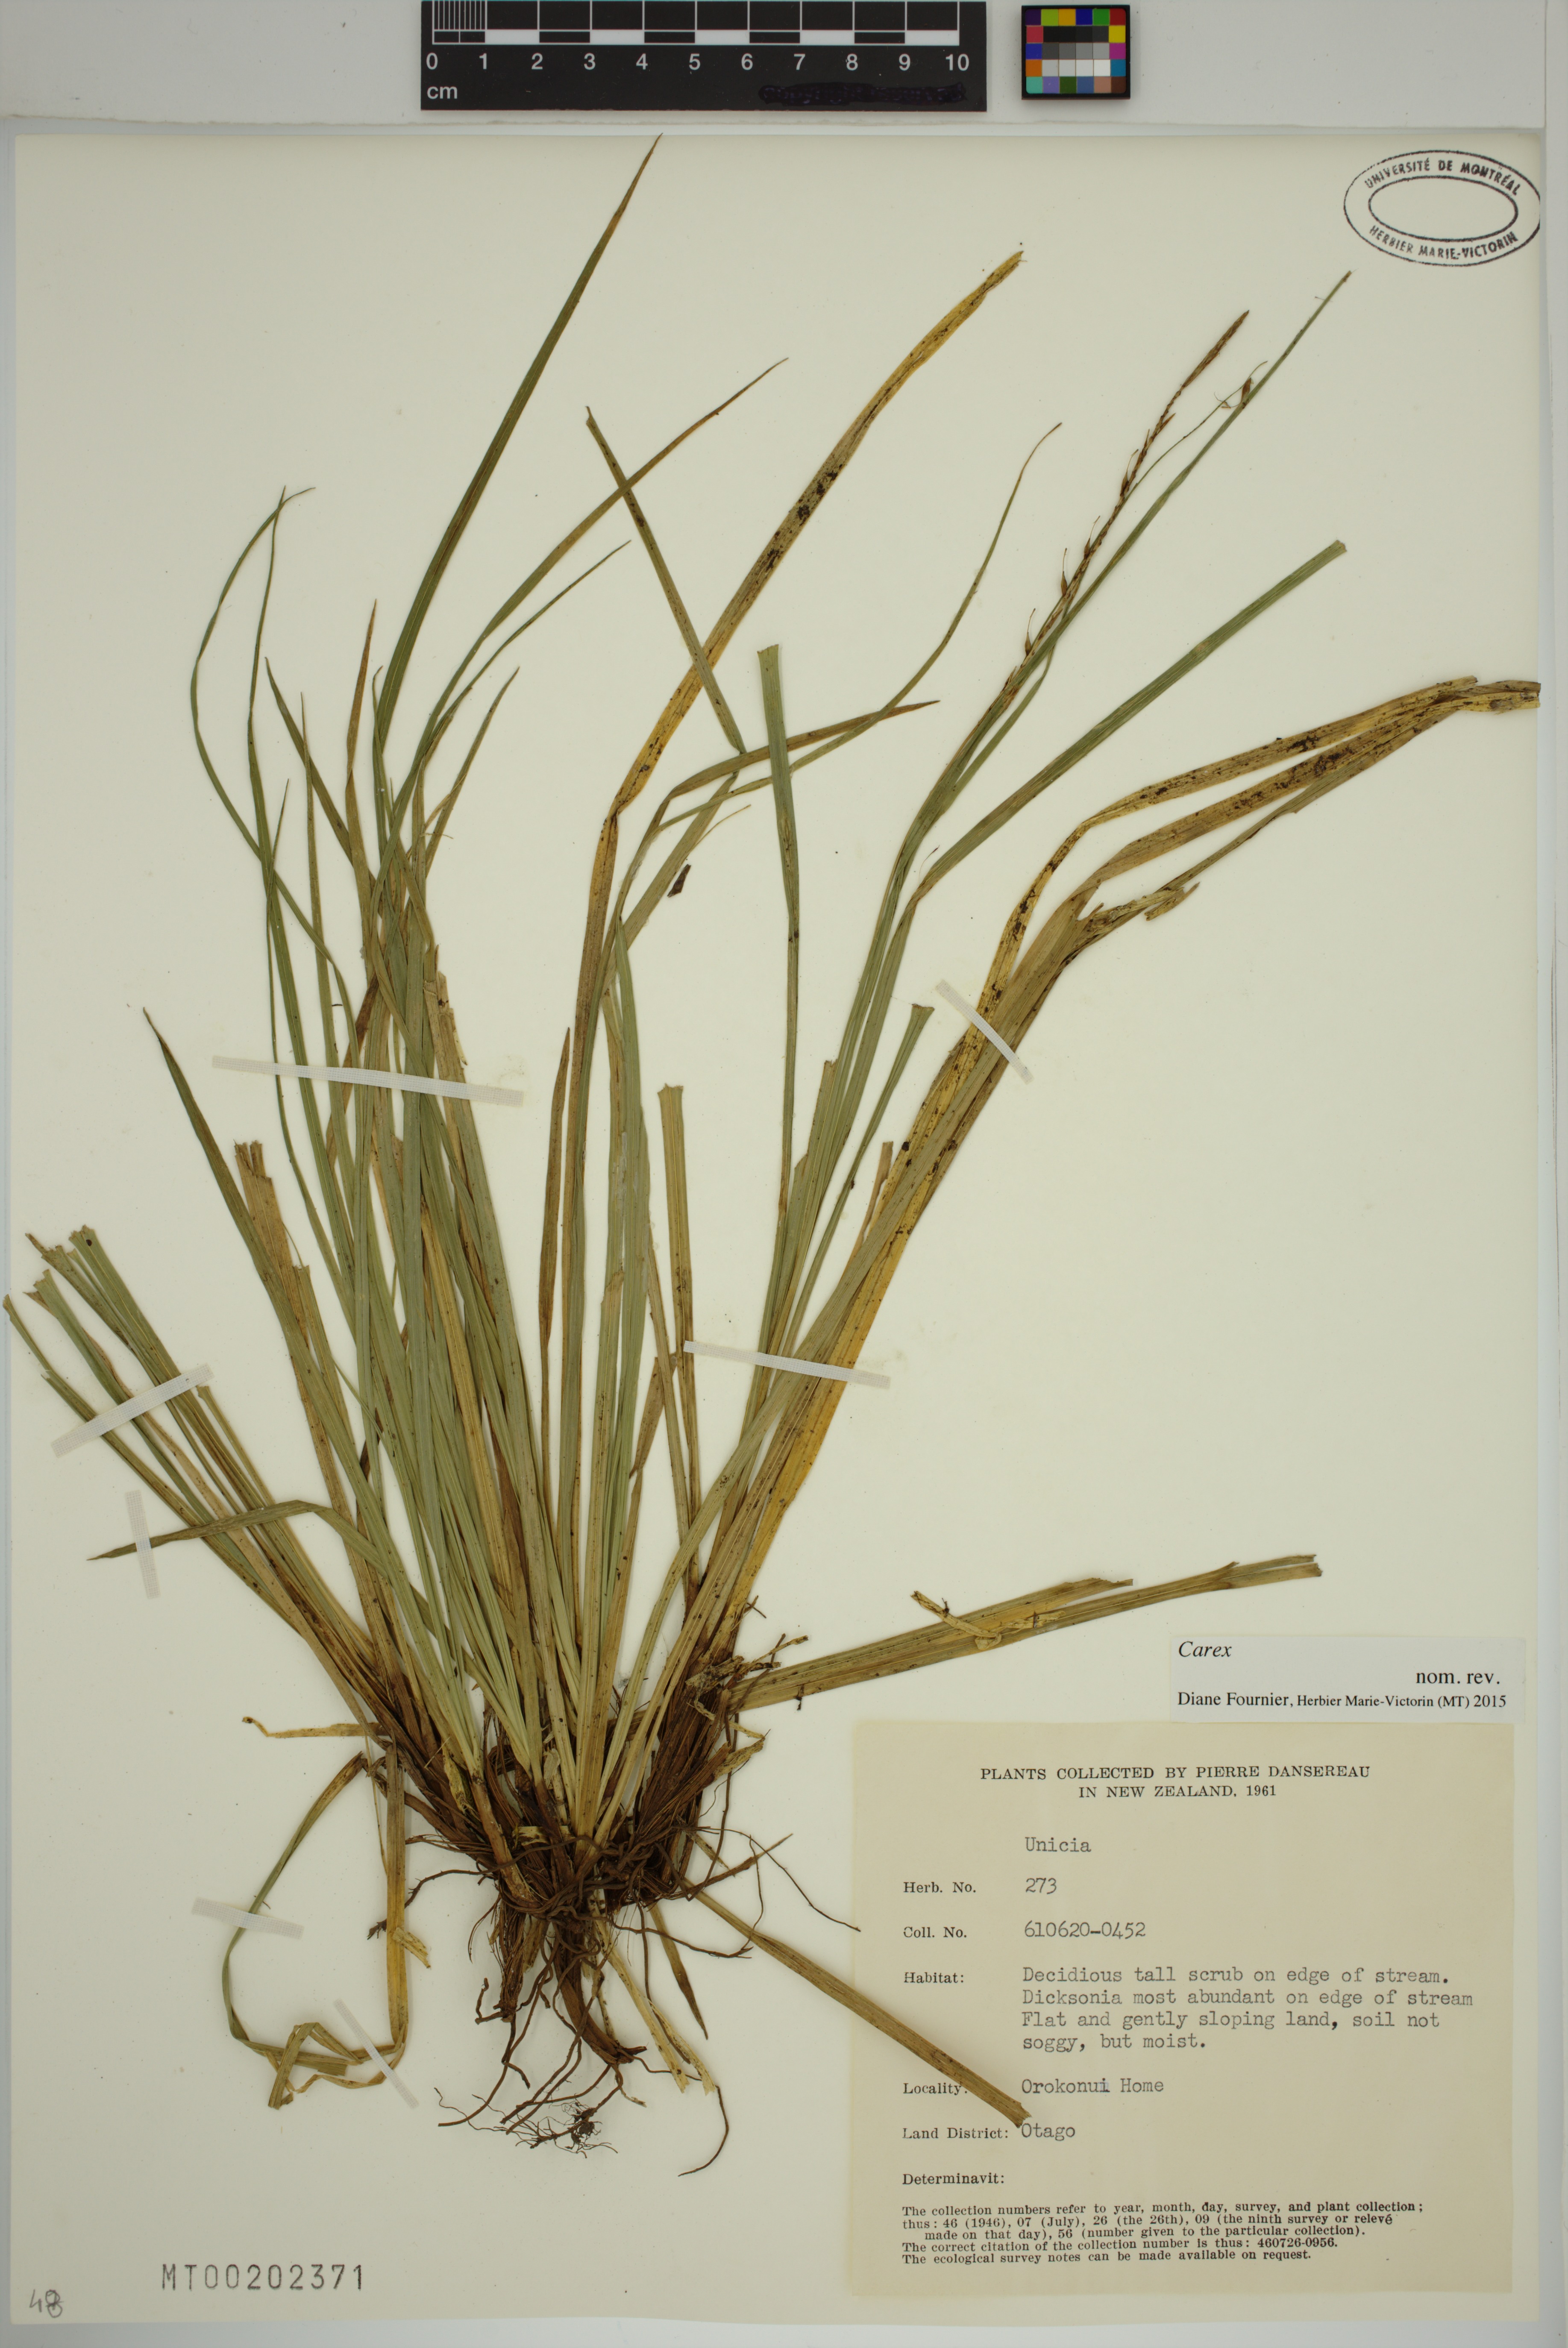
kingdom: Plantae
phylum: Tracheophyta
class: Liliopsida
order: Poales
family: Cyperaceae
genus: Carex
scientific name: Carex
